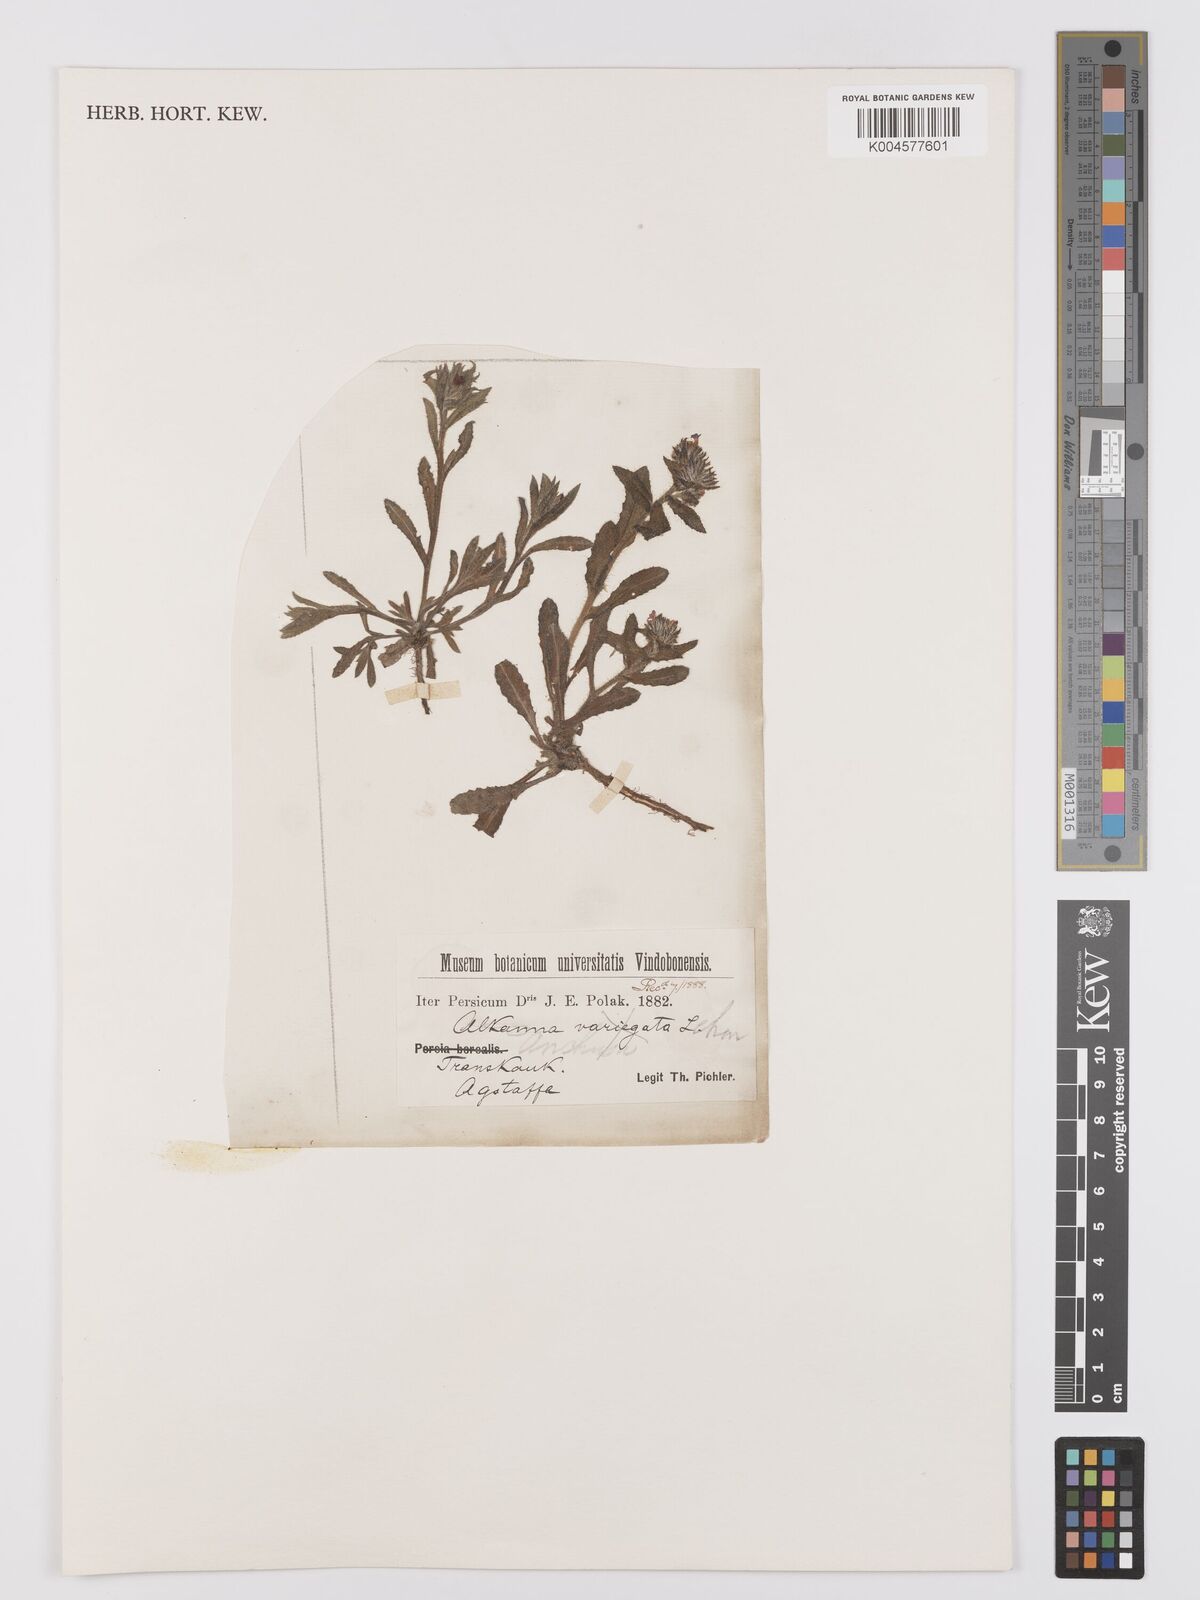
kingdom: Plantae
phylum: Tracheophyta
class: Magnoliopsida
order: Boraginales
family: Boraginaceae
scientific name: Boraginaceae
